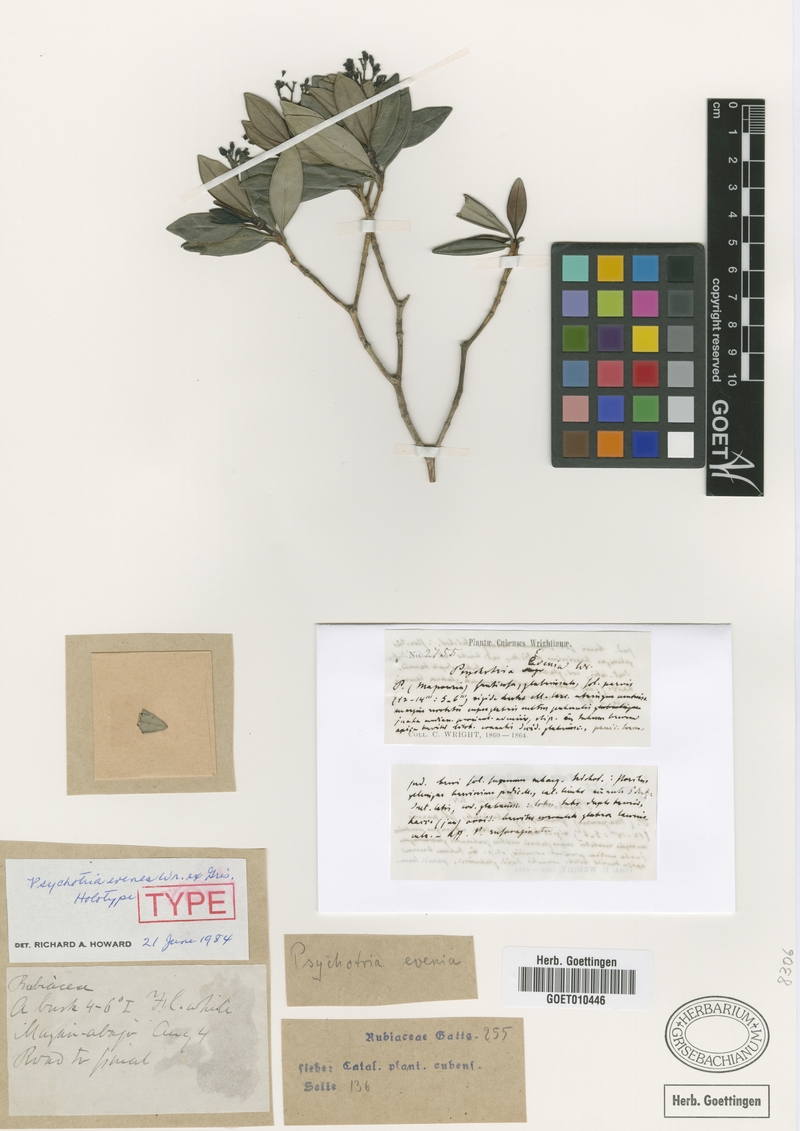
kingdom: Plantae
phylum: Tracheophyta
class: Magnoliopsida
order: Gentianales
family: Rubiaceae
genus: Psychotria
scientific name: Psychotria evenia
